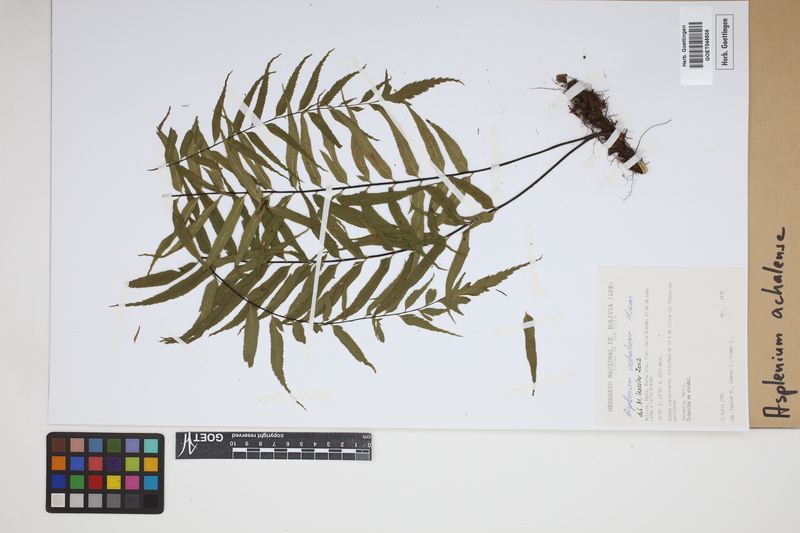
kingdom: Plantae
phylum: Tracheophyta
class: Polypodiopsida
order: Polypodiales
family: Aspleniaceae
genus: Asplenium
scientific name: Asplenium achalense
